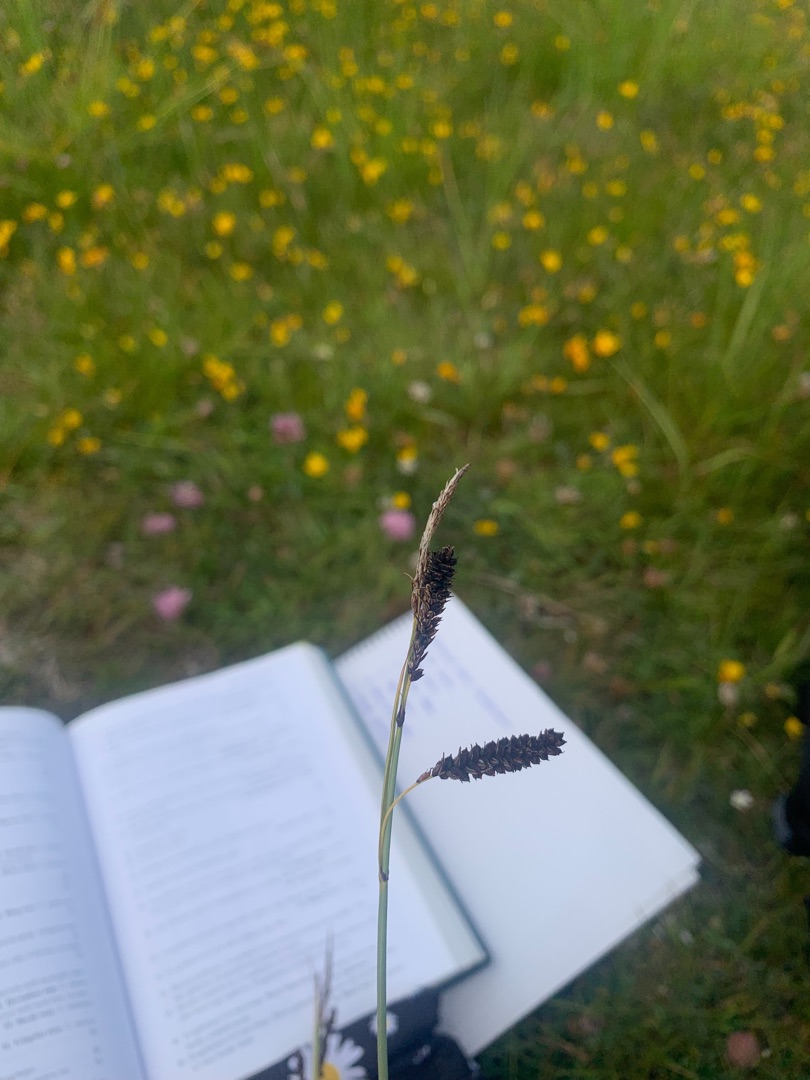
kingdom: Plantae
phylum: Tracheophyta
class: Liliopsida
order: Poales
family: Cyperaceae
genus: Carex
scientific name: Carex flacca
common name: Blågrøn star
